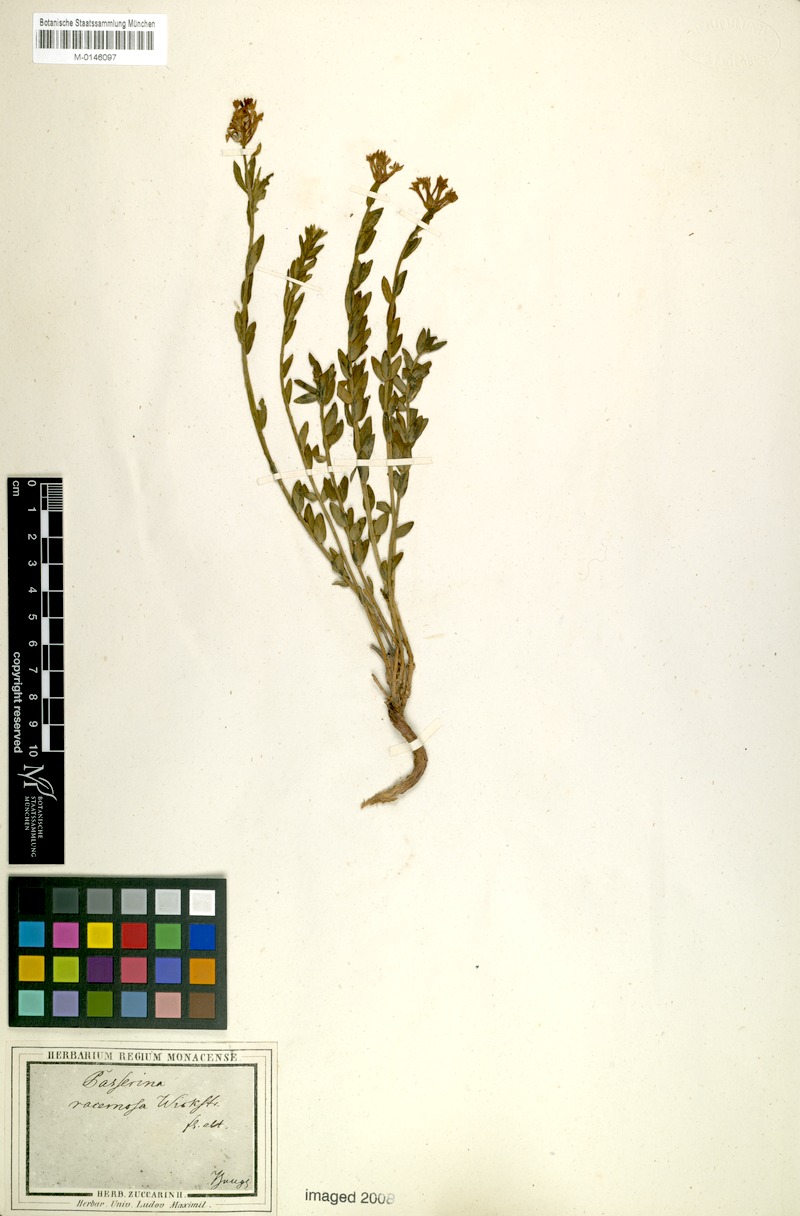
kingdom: Plantae
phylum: Tracheophyta
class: Magnoliopsida
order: Malvales
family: Thymelaeaceae
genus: Diarthron
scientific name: Diarthron altaicum
